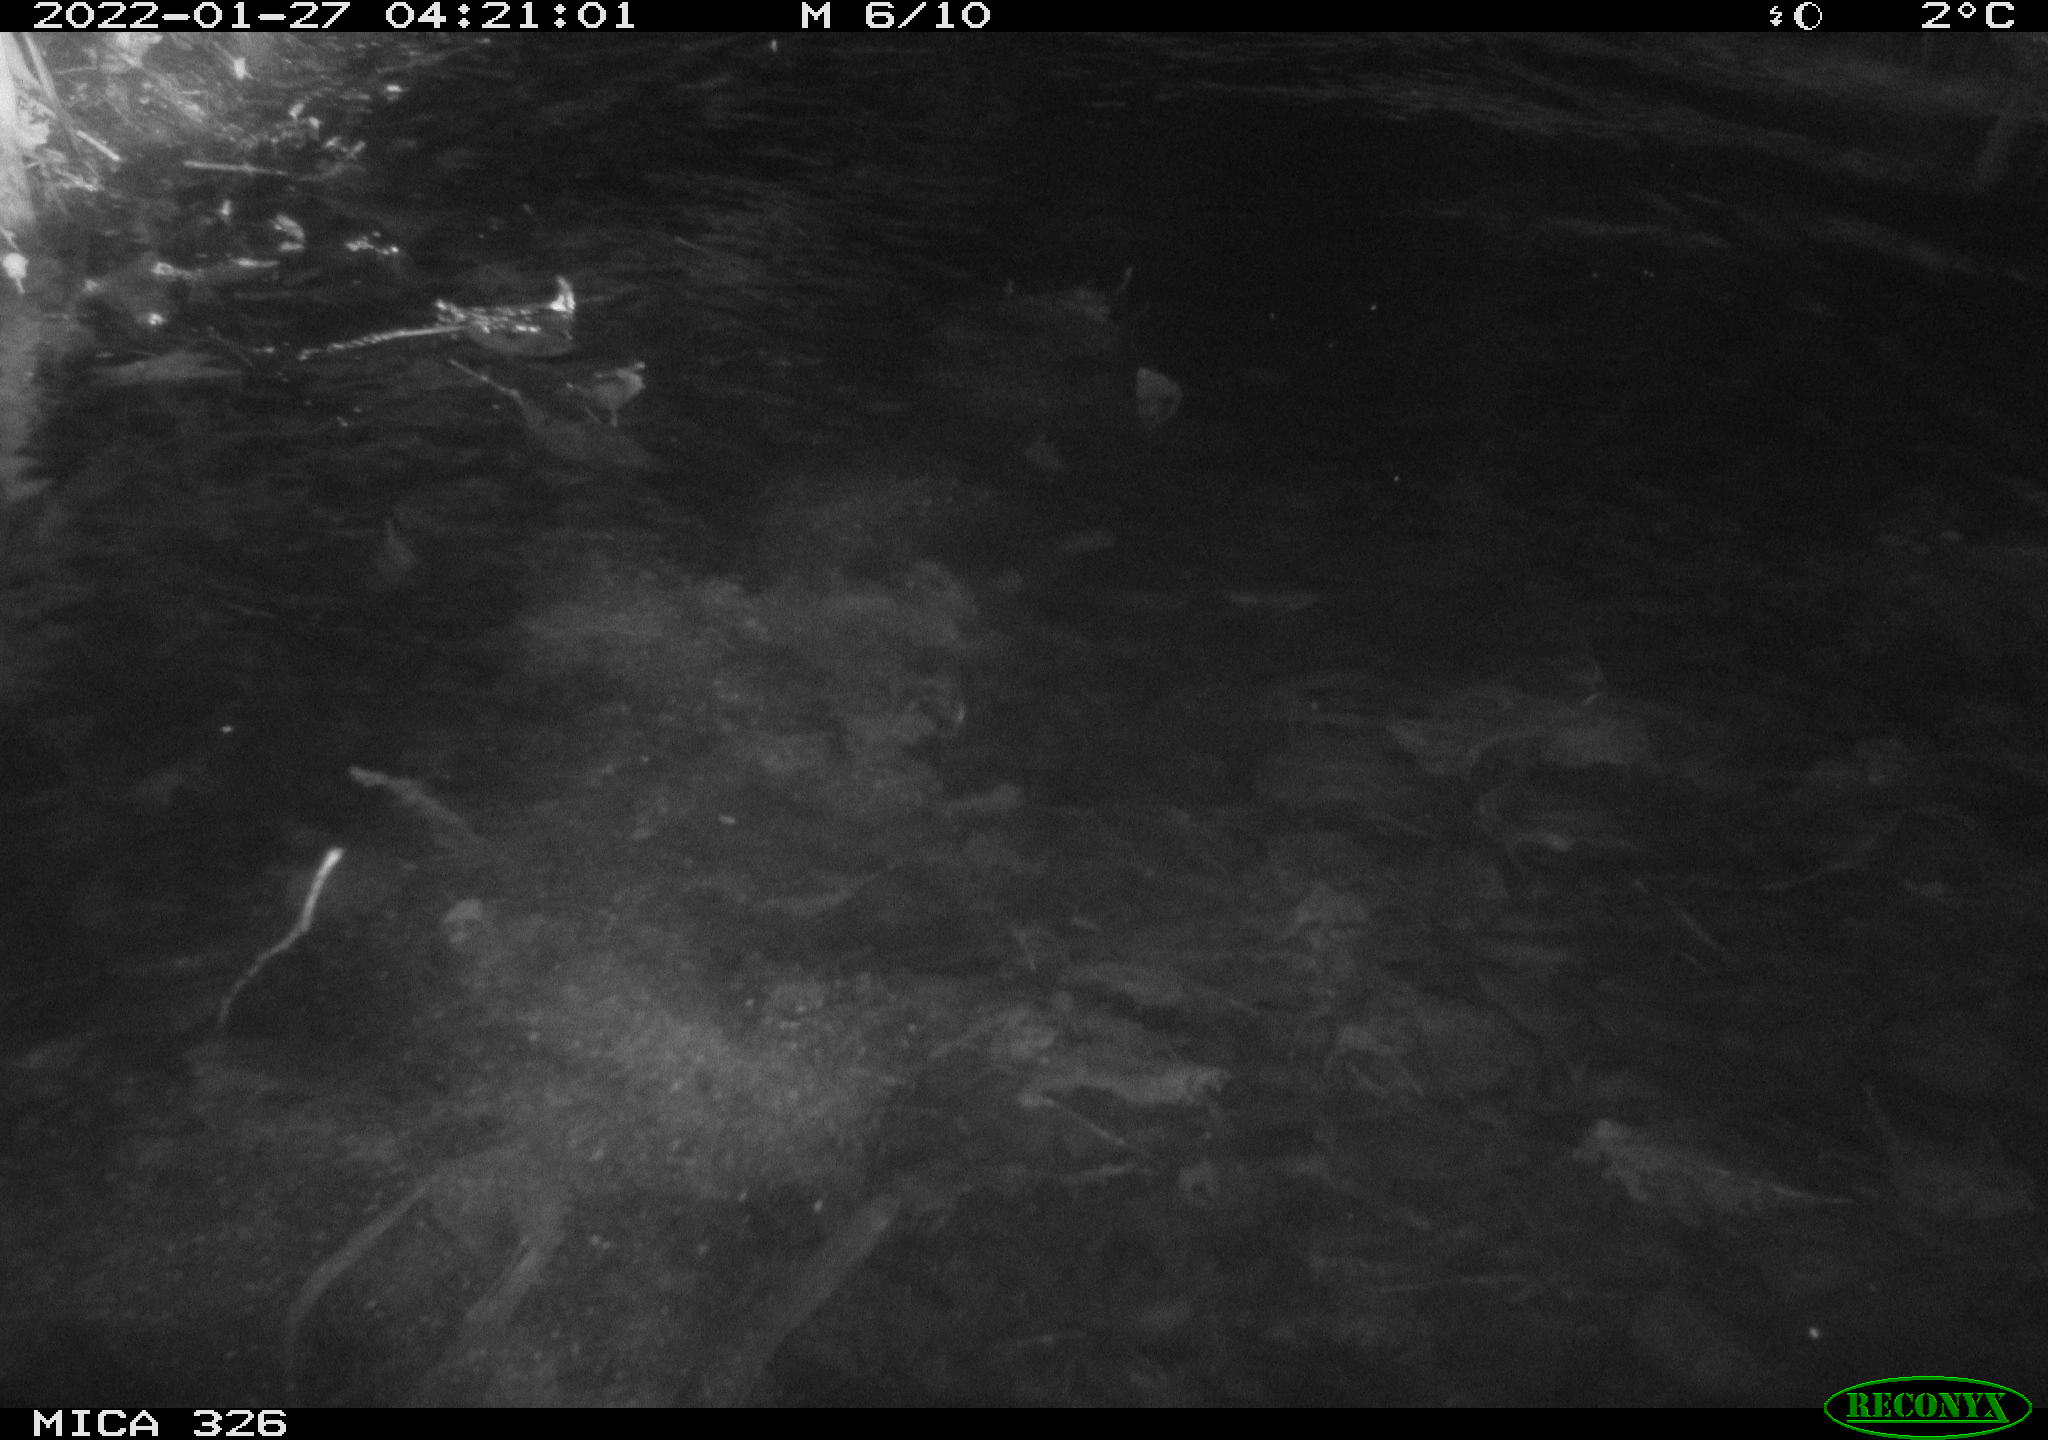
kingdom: Animalia
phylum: Chordata
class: Mammalia
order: Rodentia
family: Cricetidae
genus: Ondatra
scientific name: Ondatra zibethicus
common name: Muskrat
